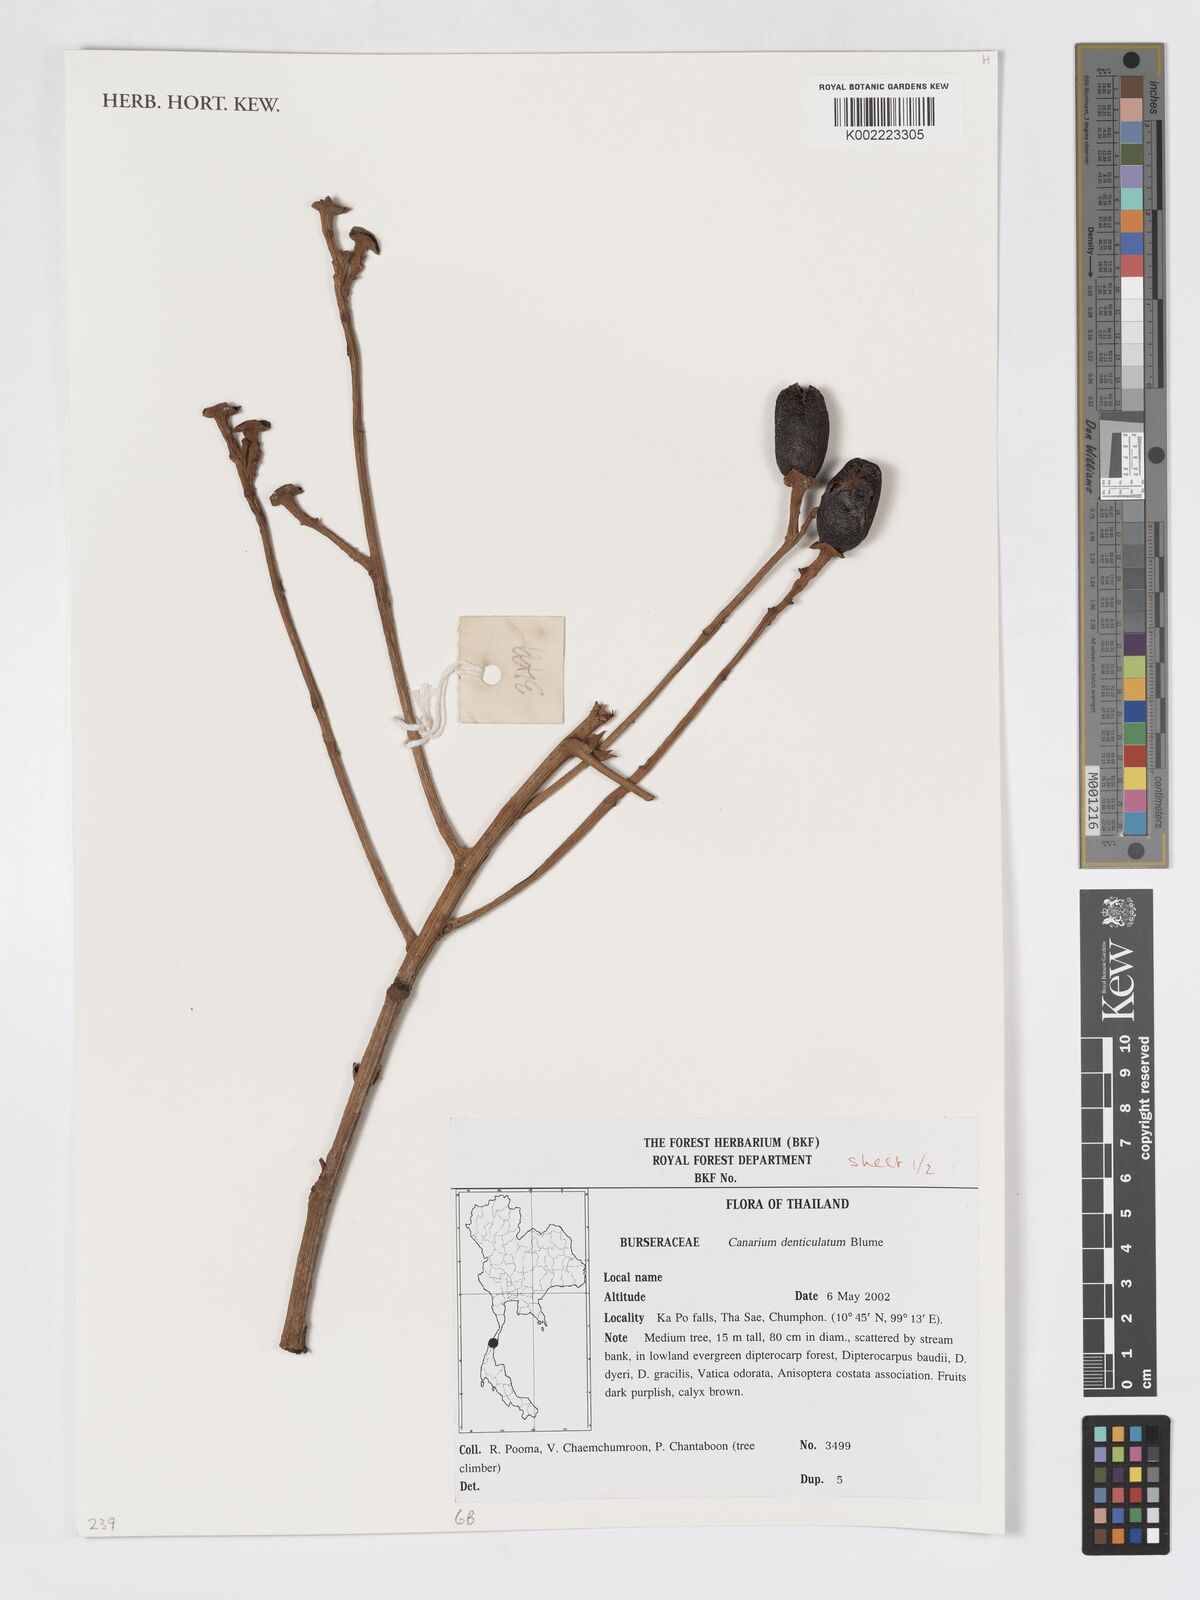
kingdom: Plantae
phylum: Tracheophyta
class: Magnoliopsida
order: Sapindales
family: Burseraceae
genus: Canarium
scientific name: Canarium denticulatum
